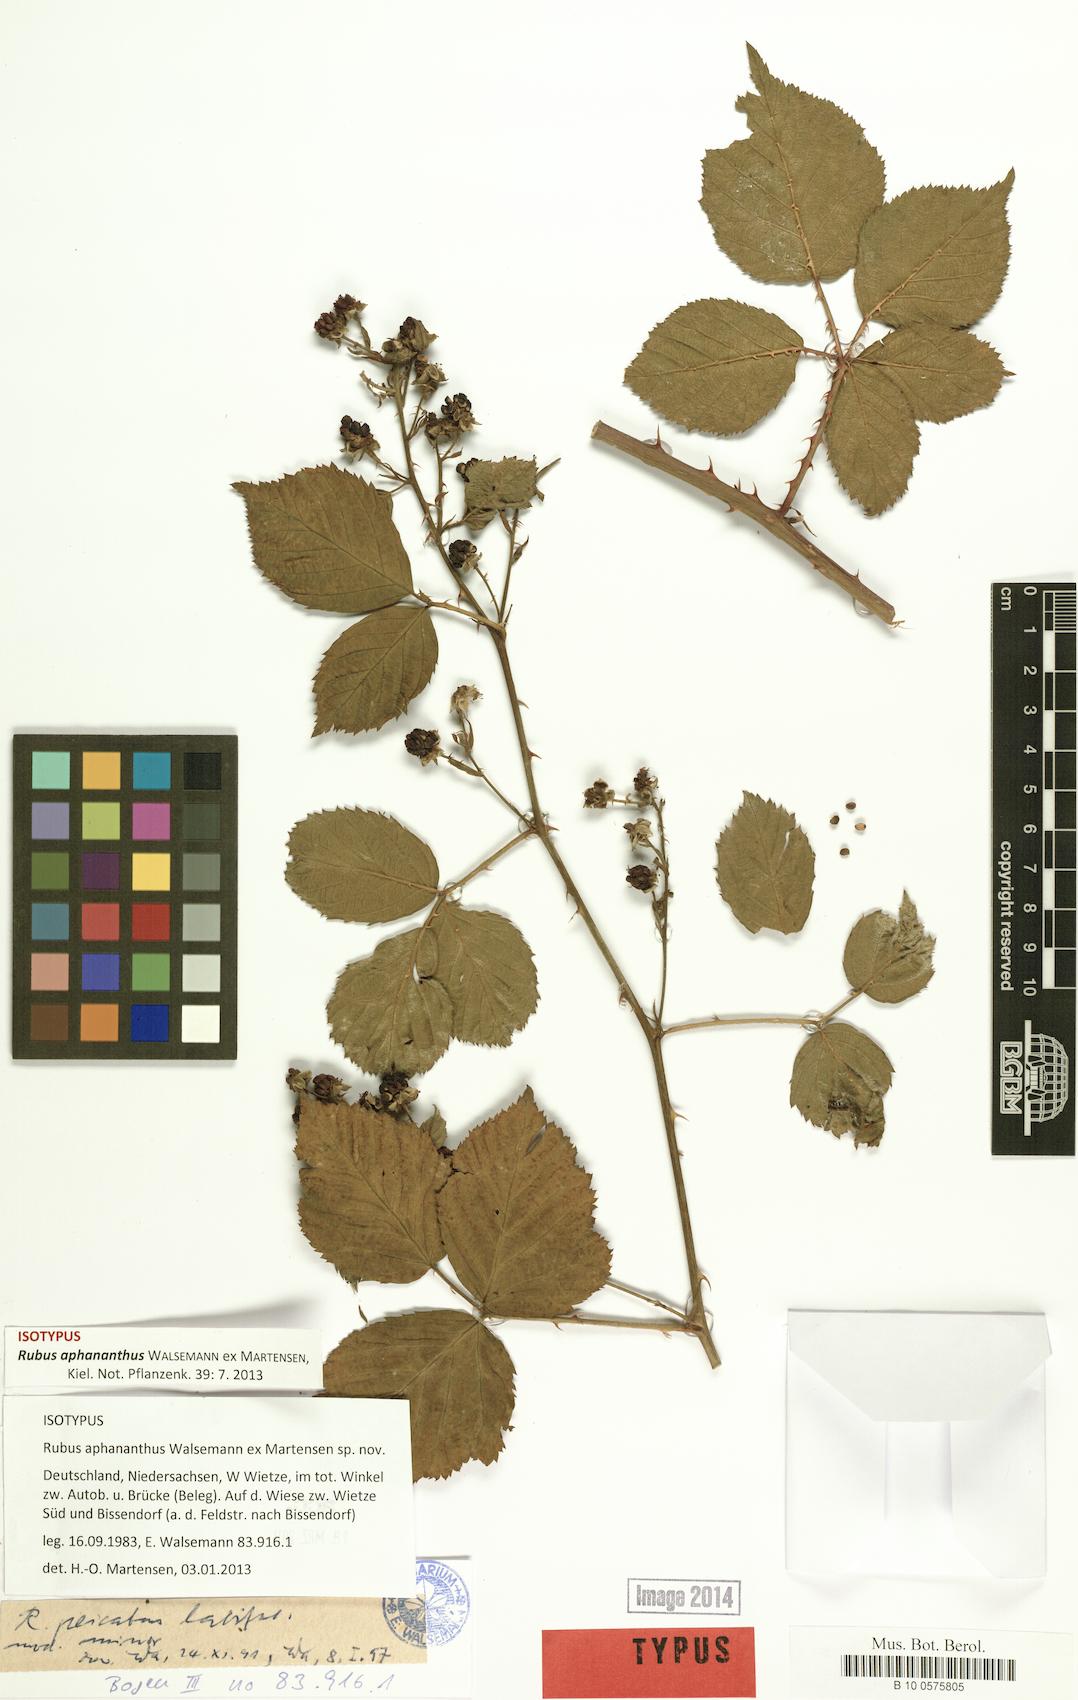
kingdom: Plantae
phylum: Tracheophyta
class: Magnoliopsida
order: Rosales
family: Rosaceae
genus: Rubus
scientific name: Rubus aphananthus
